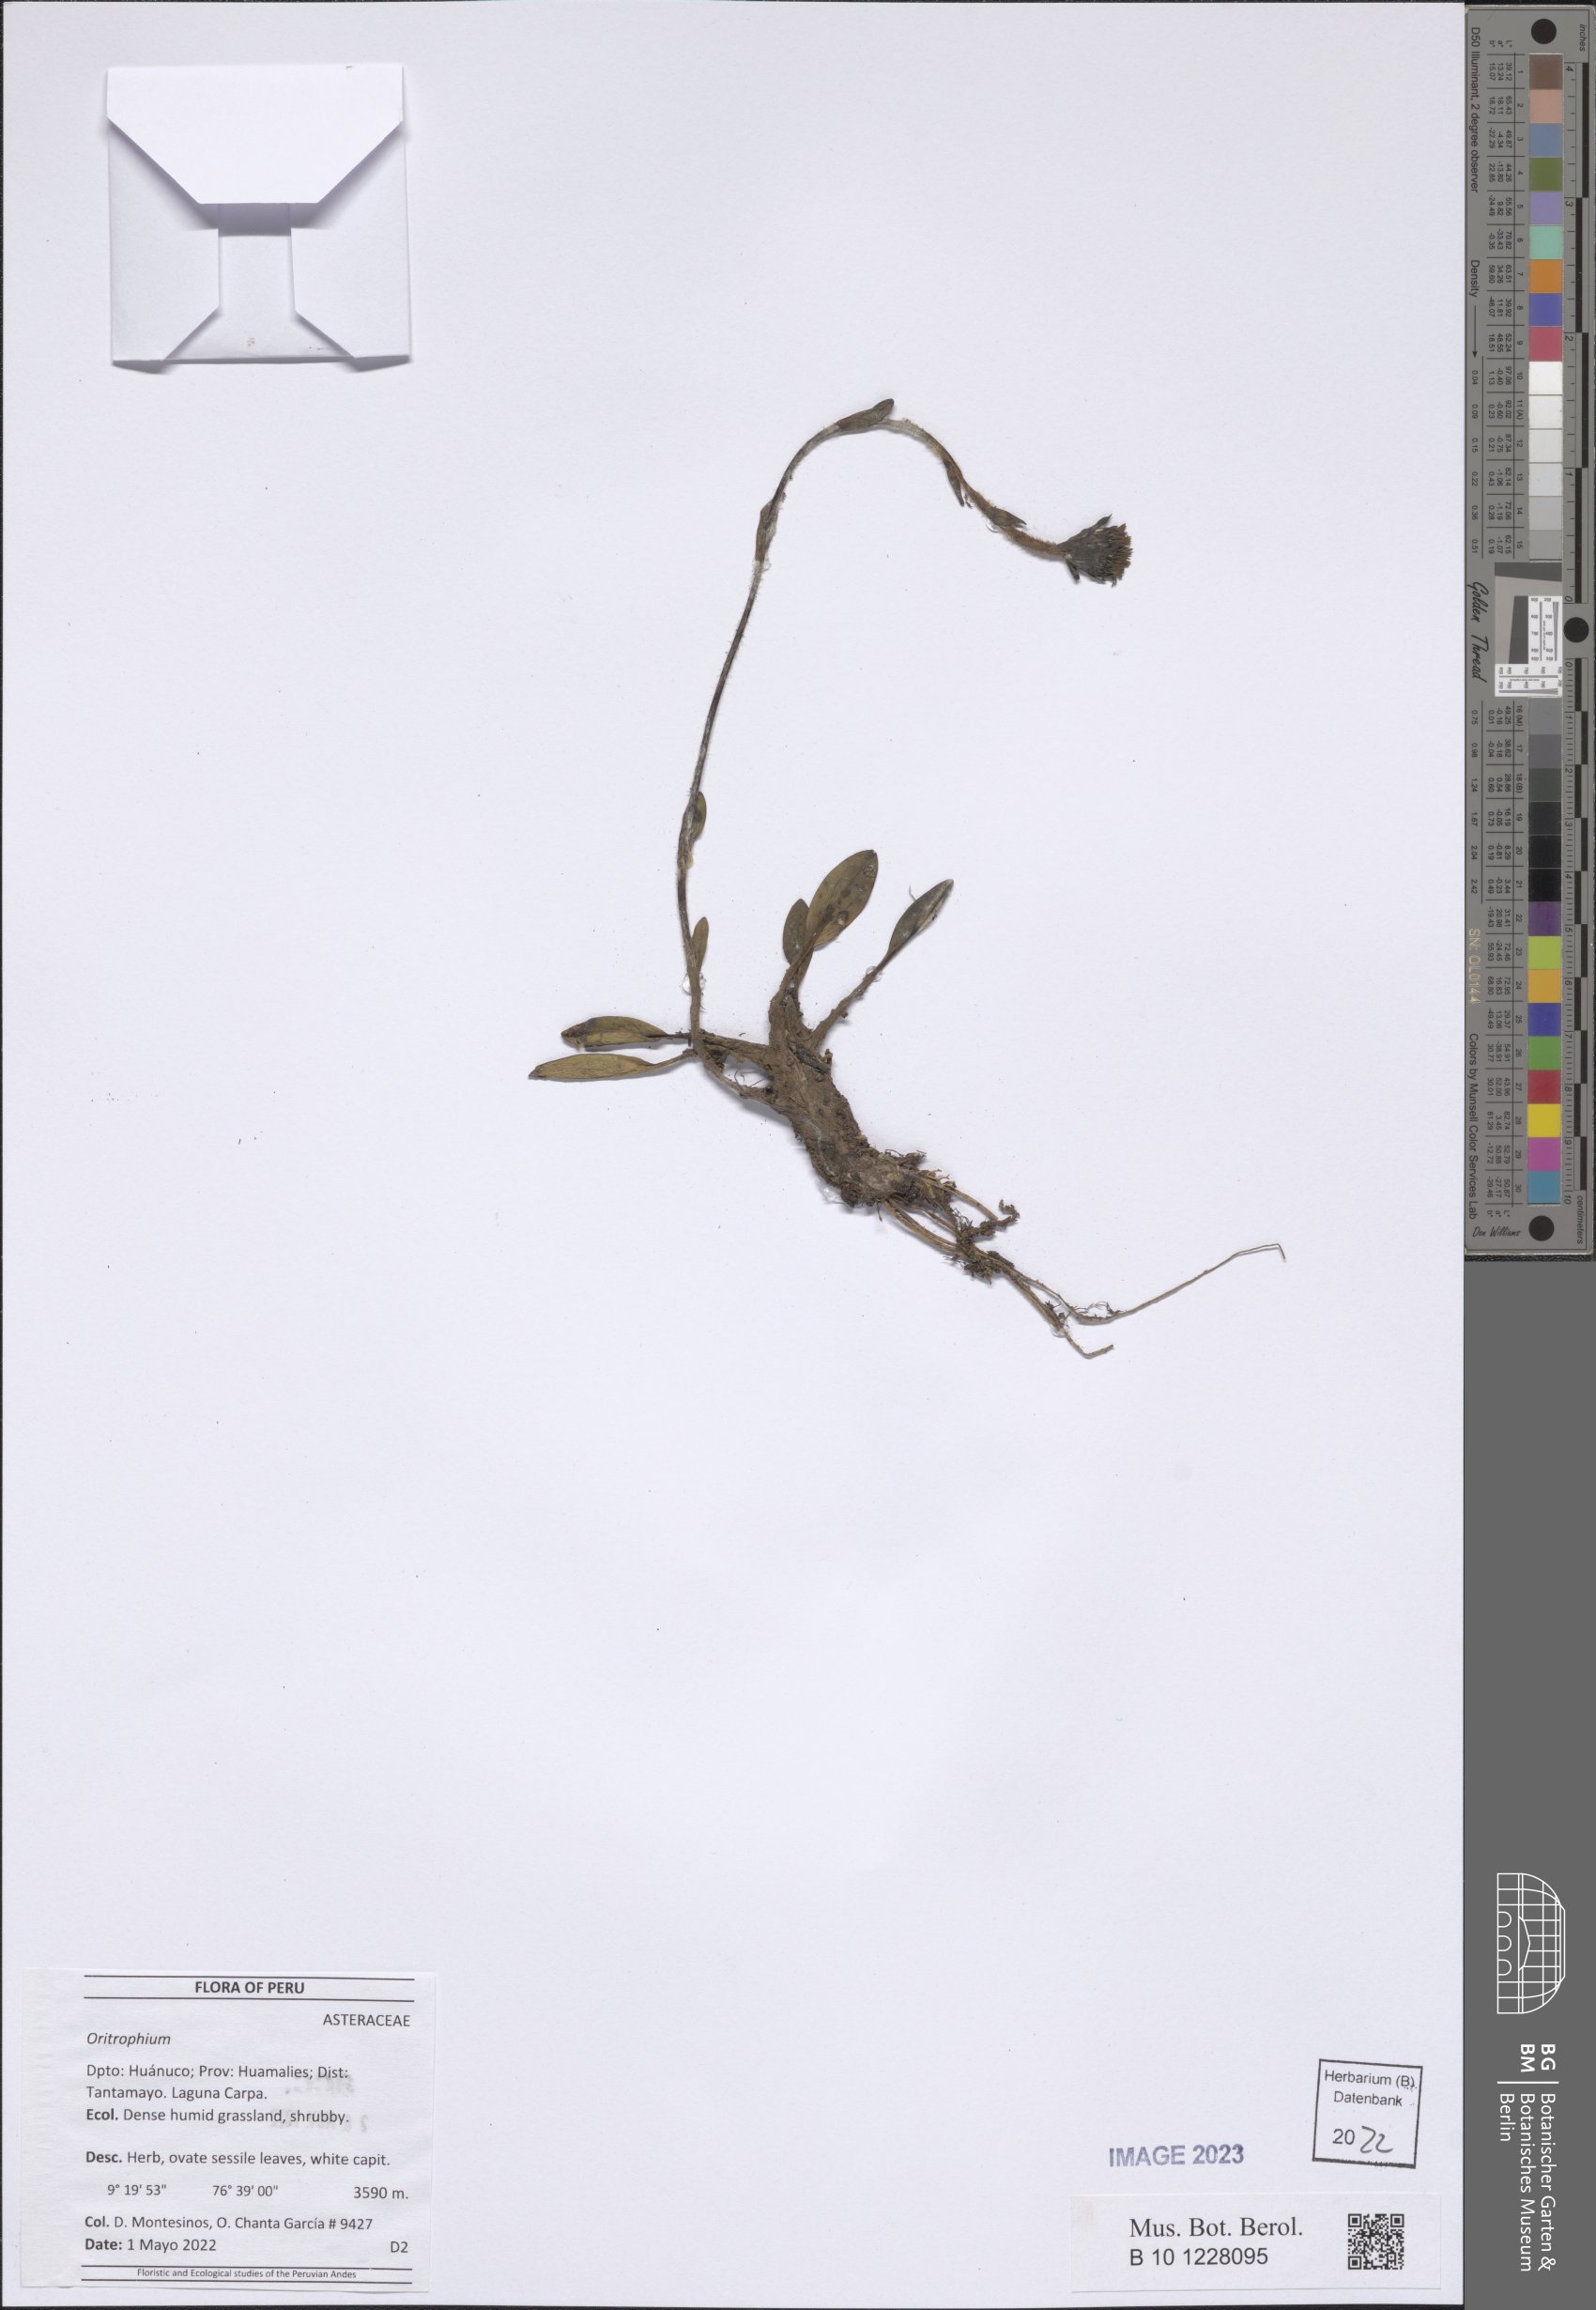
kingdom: Plantae
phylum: Tracheophyta
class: Magnoliopsida
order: Asterales
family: Asteraceae
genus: Oritrophium
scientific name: Oritrophium
